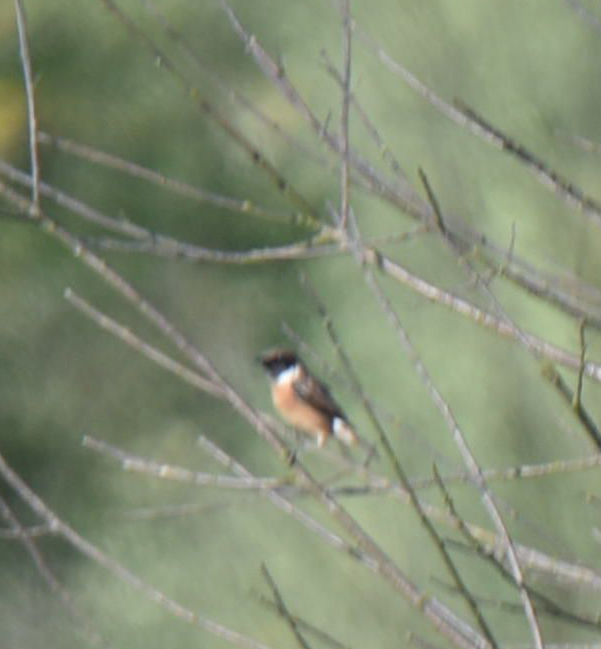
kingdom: Animalia
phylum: Chordata
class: Aves
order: Passeriformes
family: Muscicapidae
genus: Saxicola
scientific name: Saxicola rubicola
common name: European stonechat
